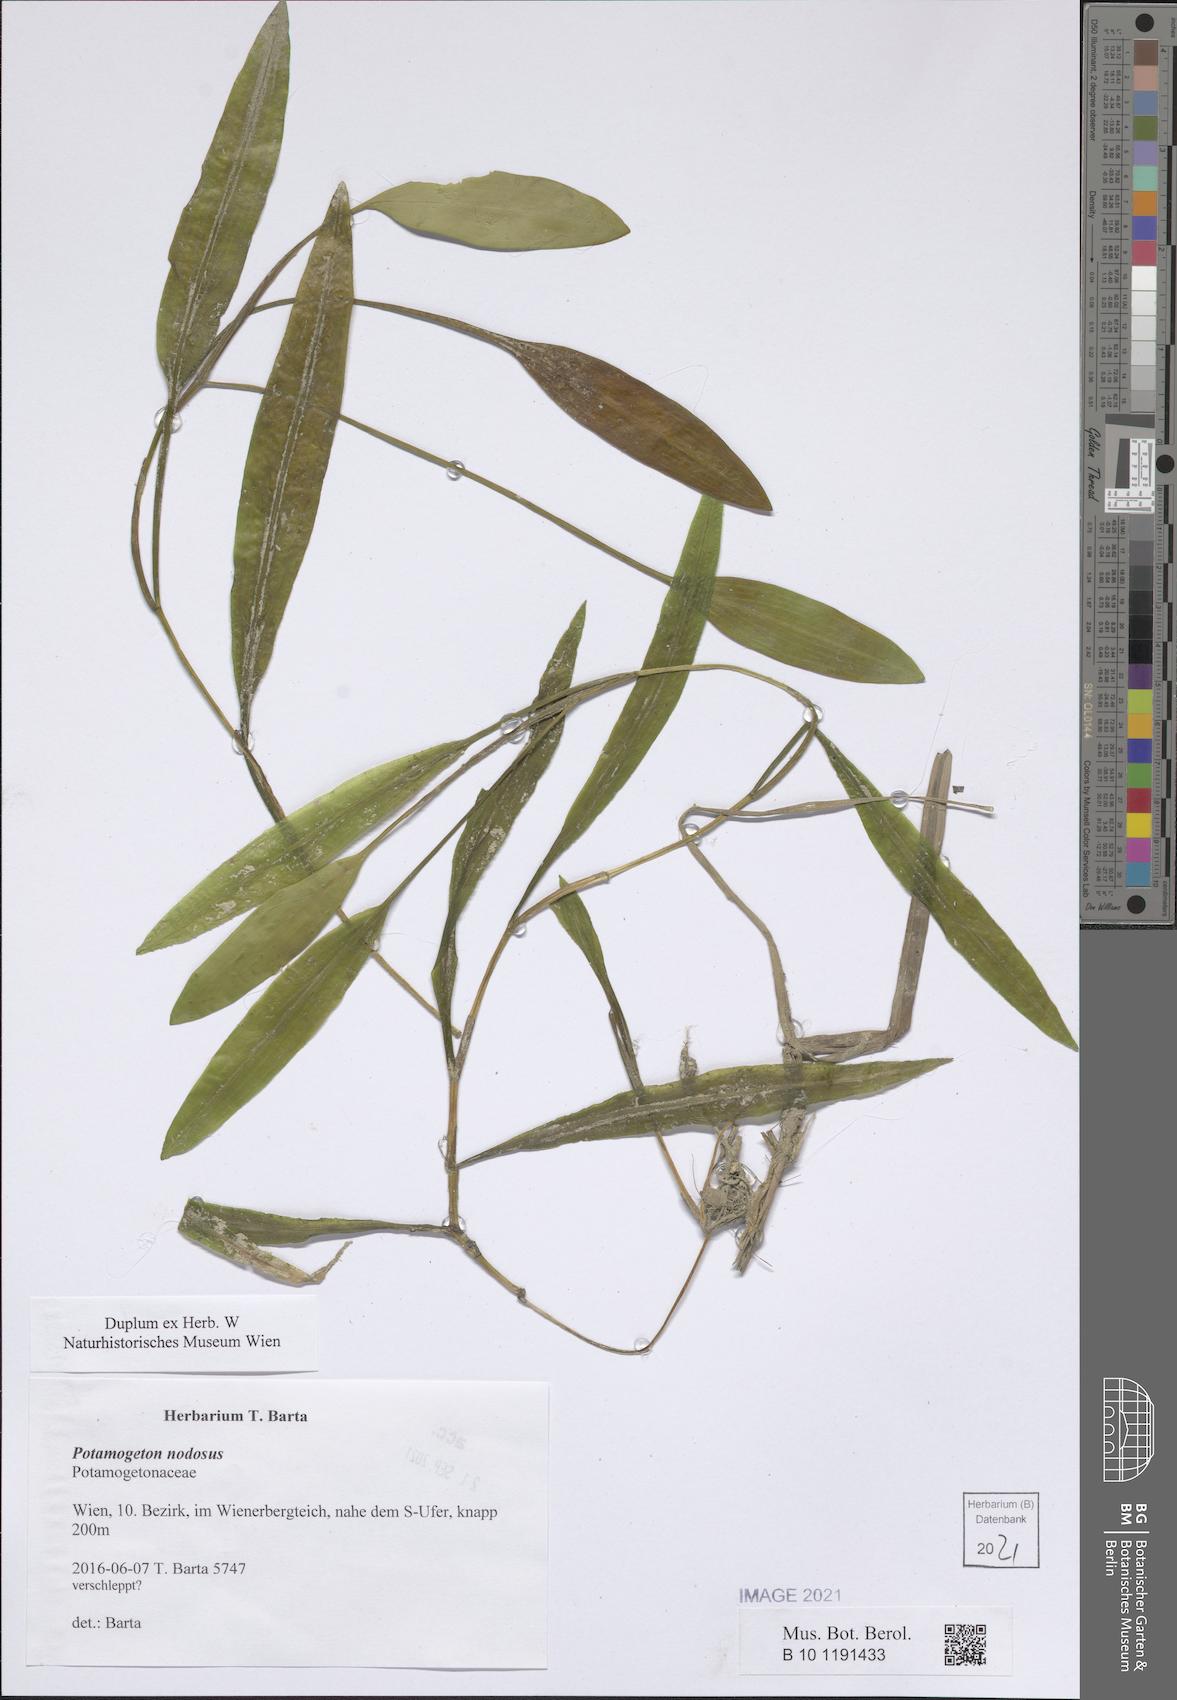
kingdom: Plantae
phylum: Tracheophyta
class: Liliopsida
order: Alismatales
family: Potamogetonaceae
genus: Potamogeton
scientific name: Potamogeton nodosus
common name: Loddon pondweed
